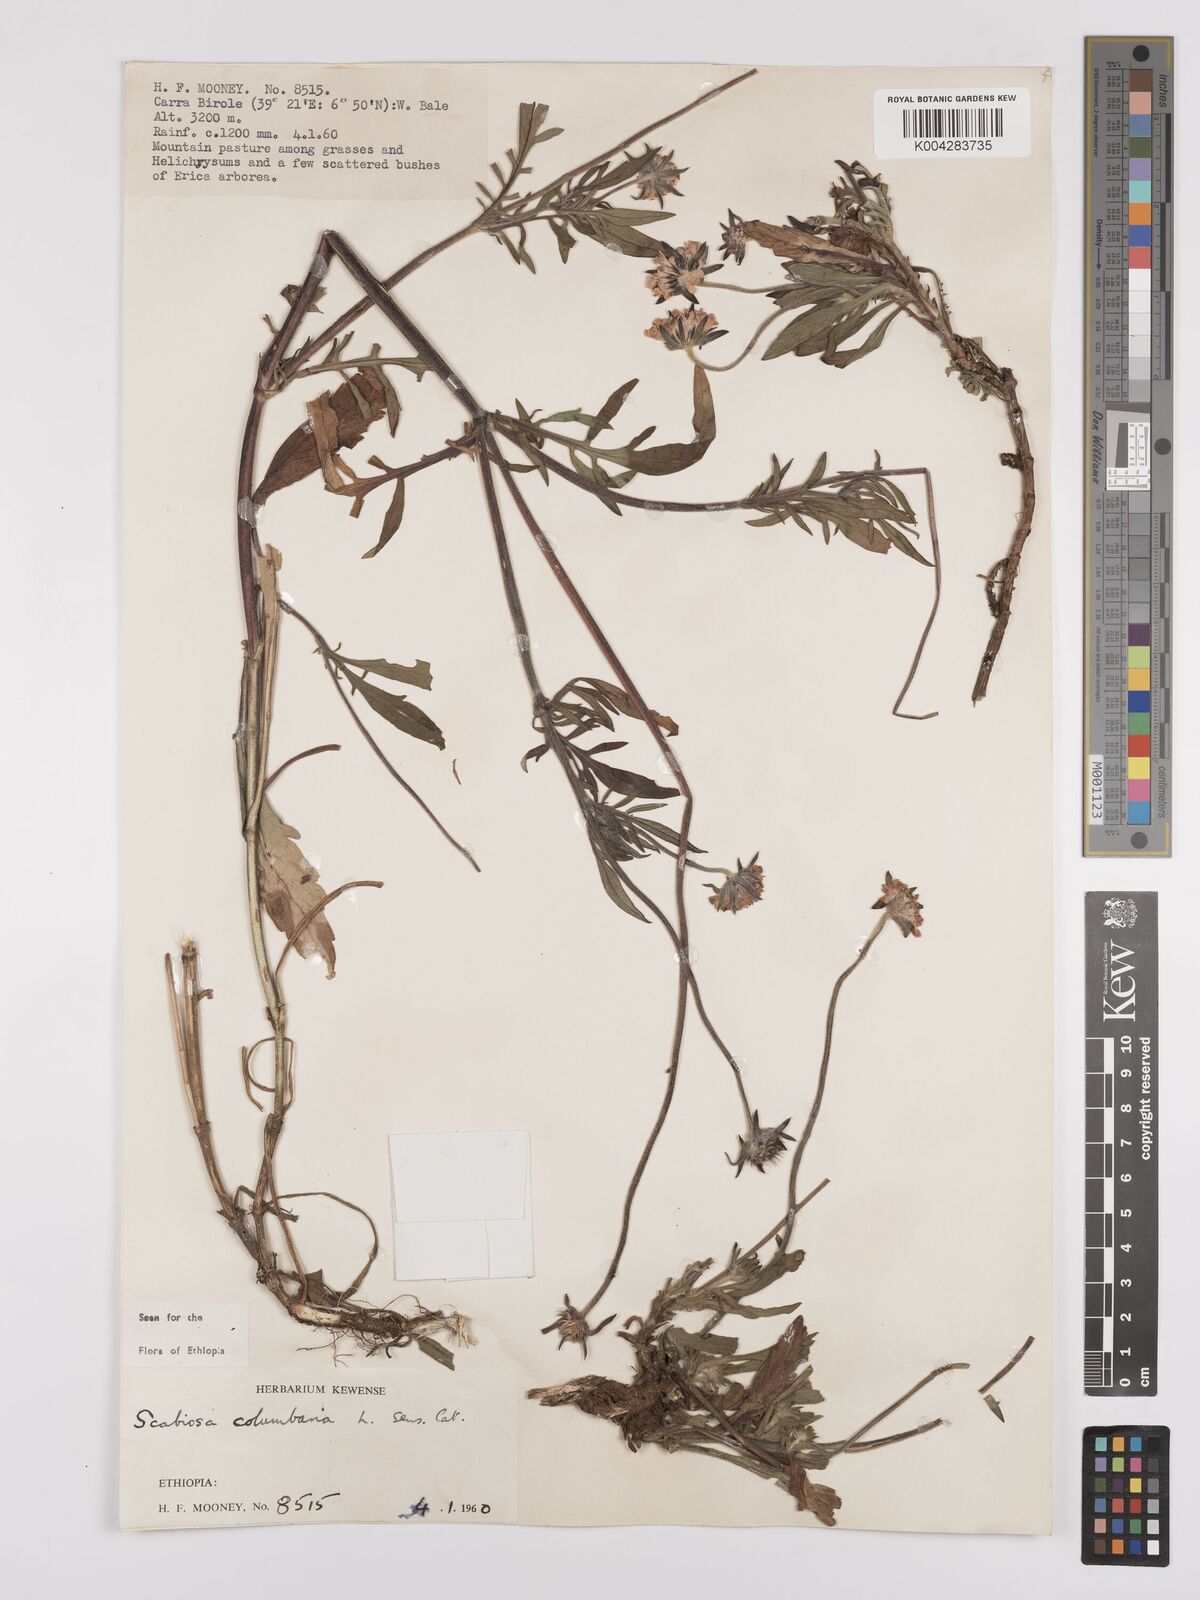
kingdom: Plantae
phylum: Tracheophyta
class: Magnoliopsida
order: Dipsacales
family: Caprifoliaceae
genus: Scabiosa
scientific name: Scabiosa columbaria
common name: Small scabious
